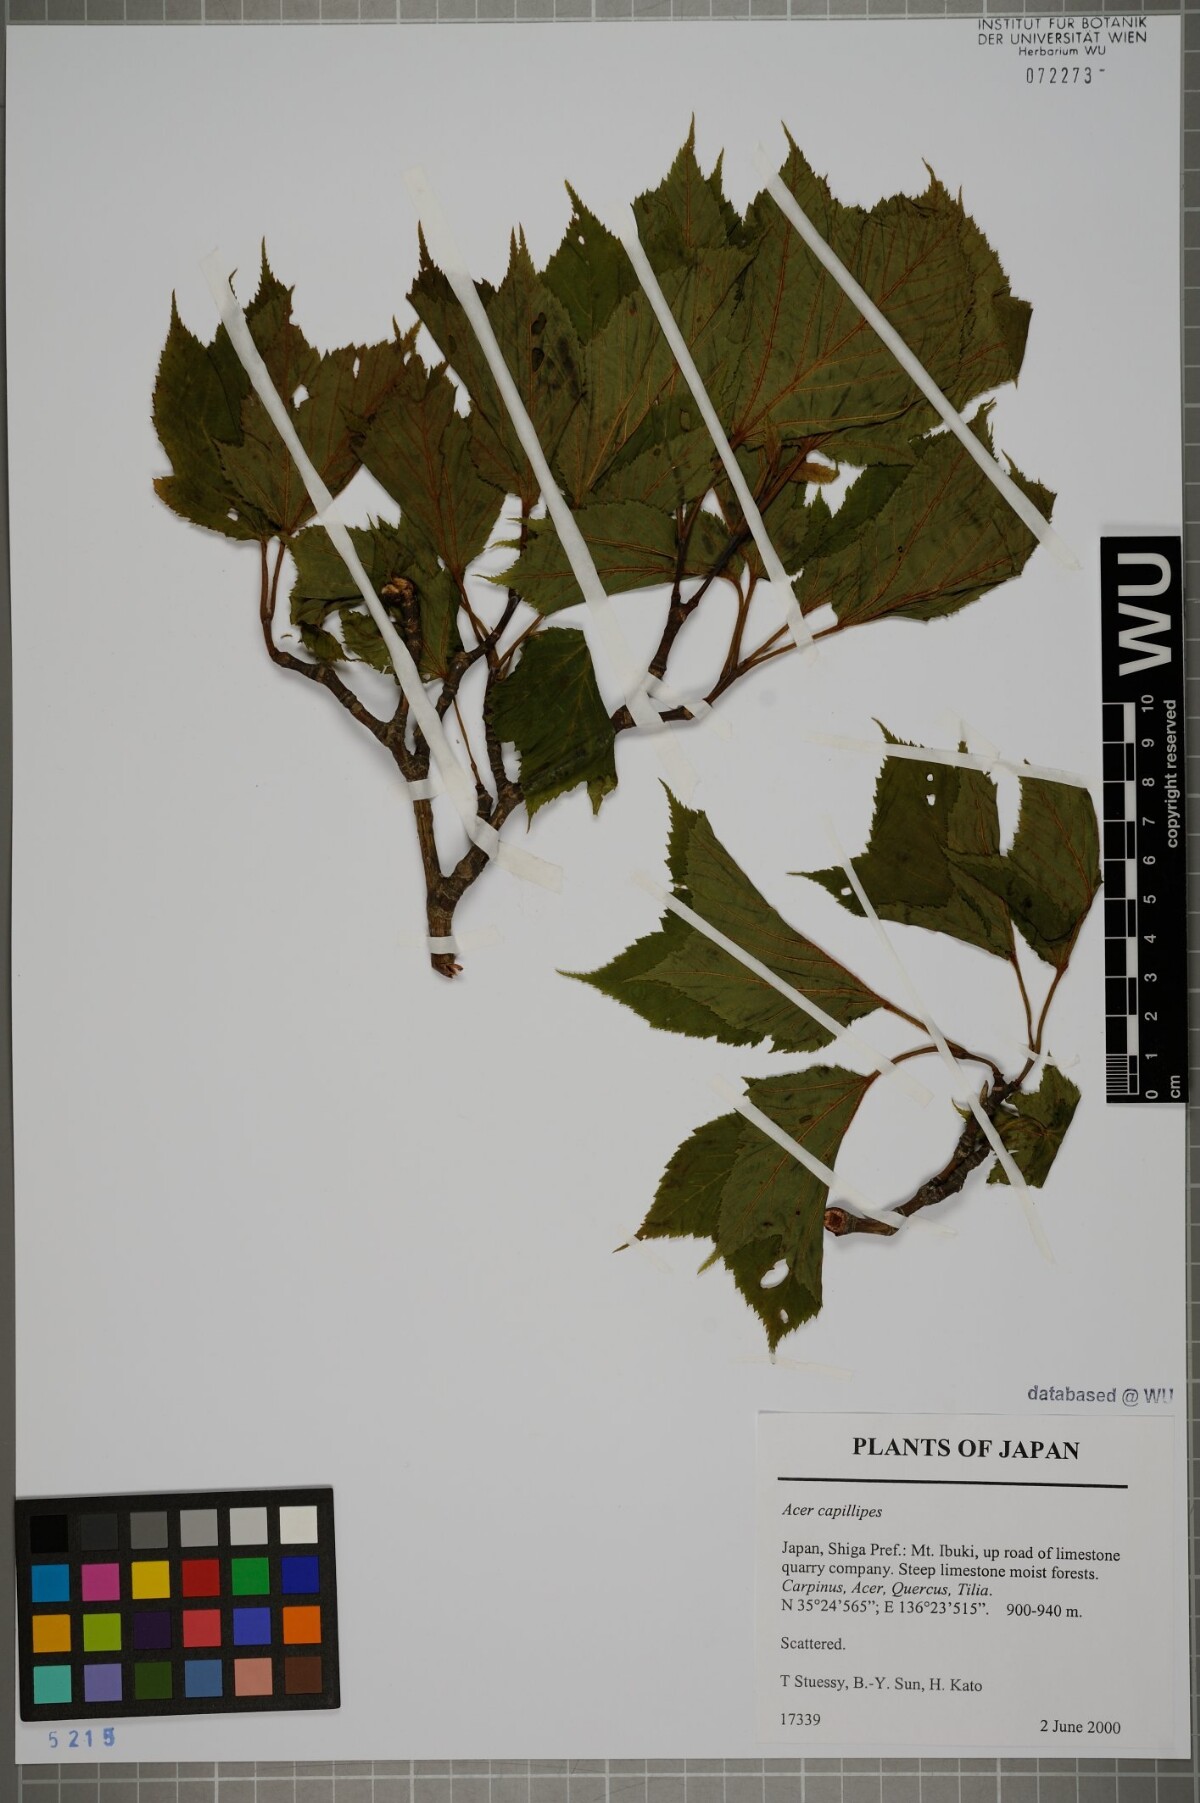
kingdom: Plantae
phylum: Tracheophyta
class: Magnoliopsida
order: Sapindales
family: Sapindaceae
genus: Acer
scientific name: Acer capillipes
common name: Kyushu maple
